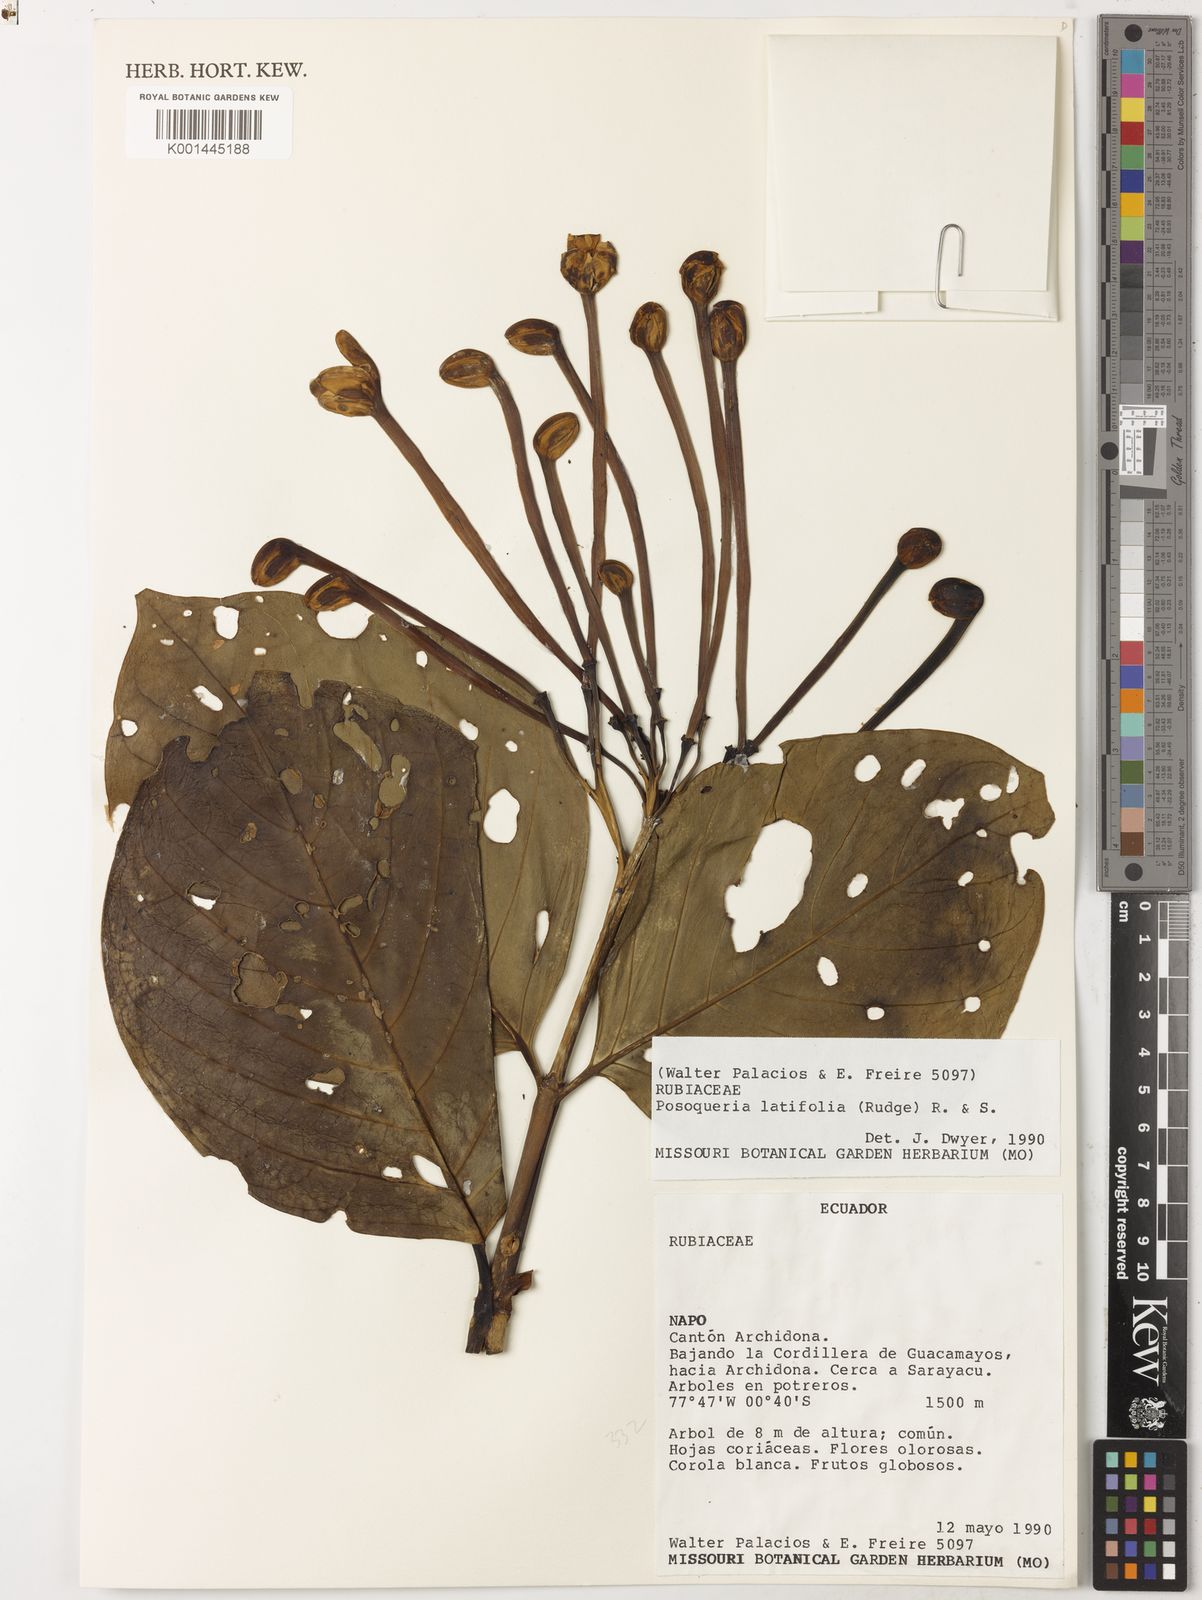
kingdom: Plantae
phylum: Tracheophyta
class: Magnoliopsida
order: Gentianales
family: Rubiaceae
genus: Posoqueria
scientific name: Posoqueria latifolia
